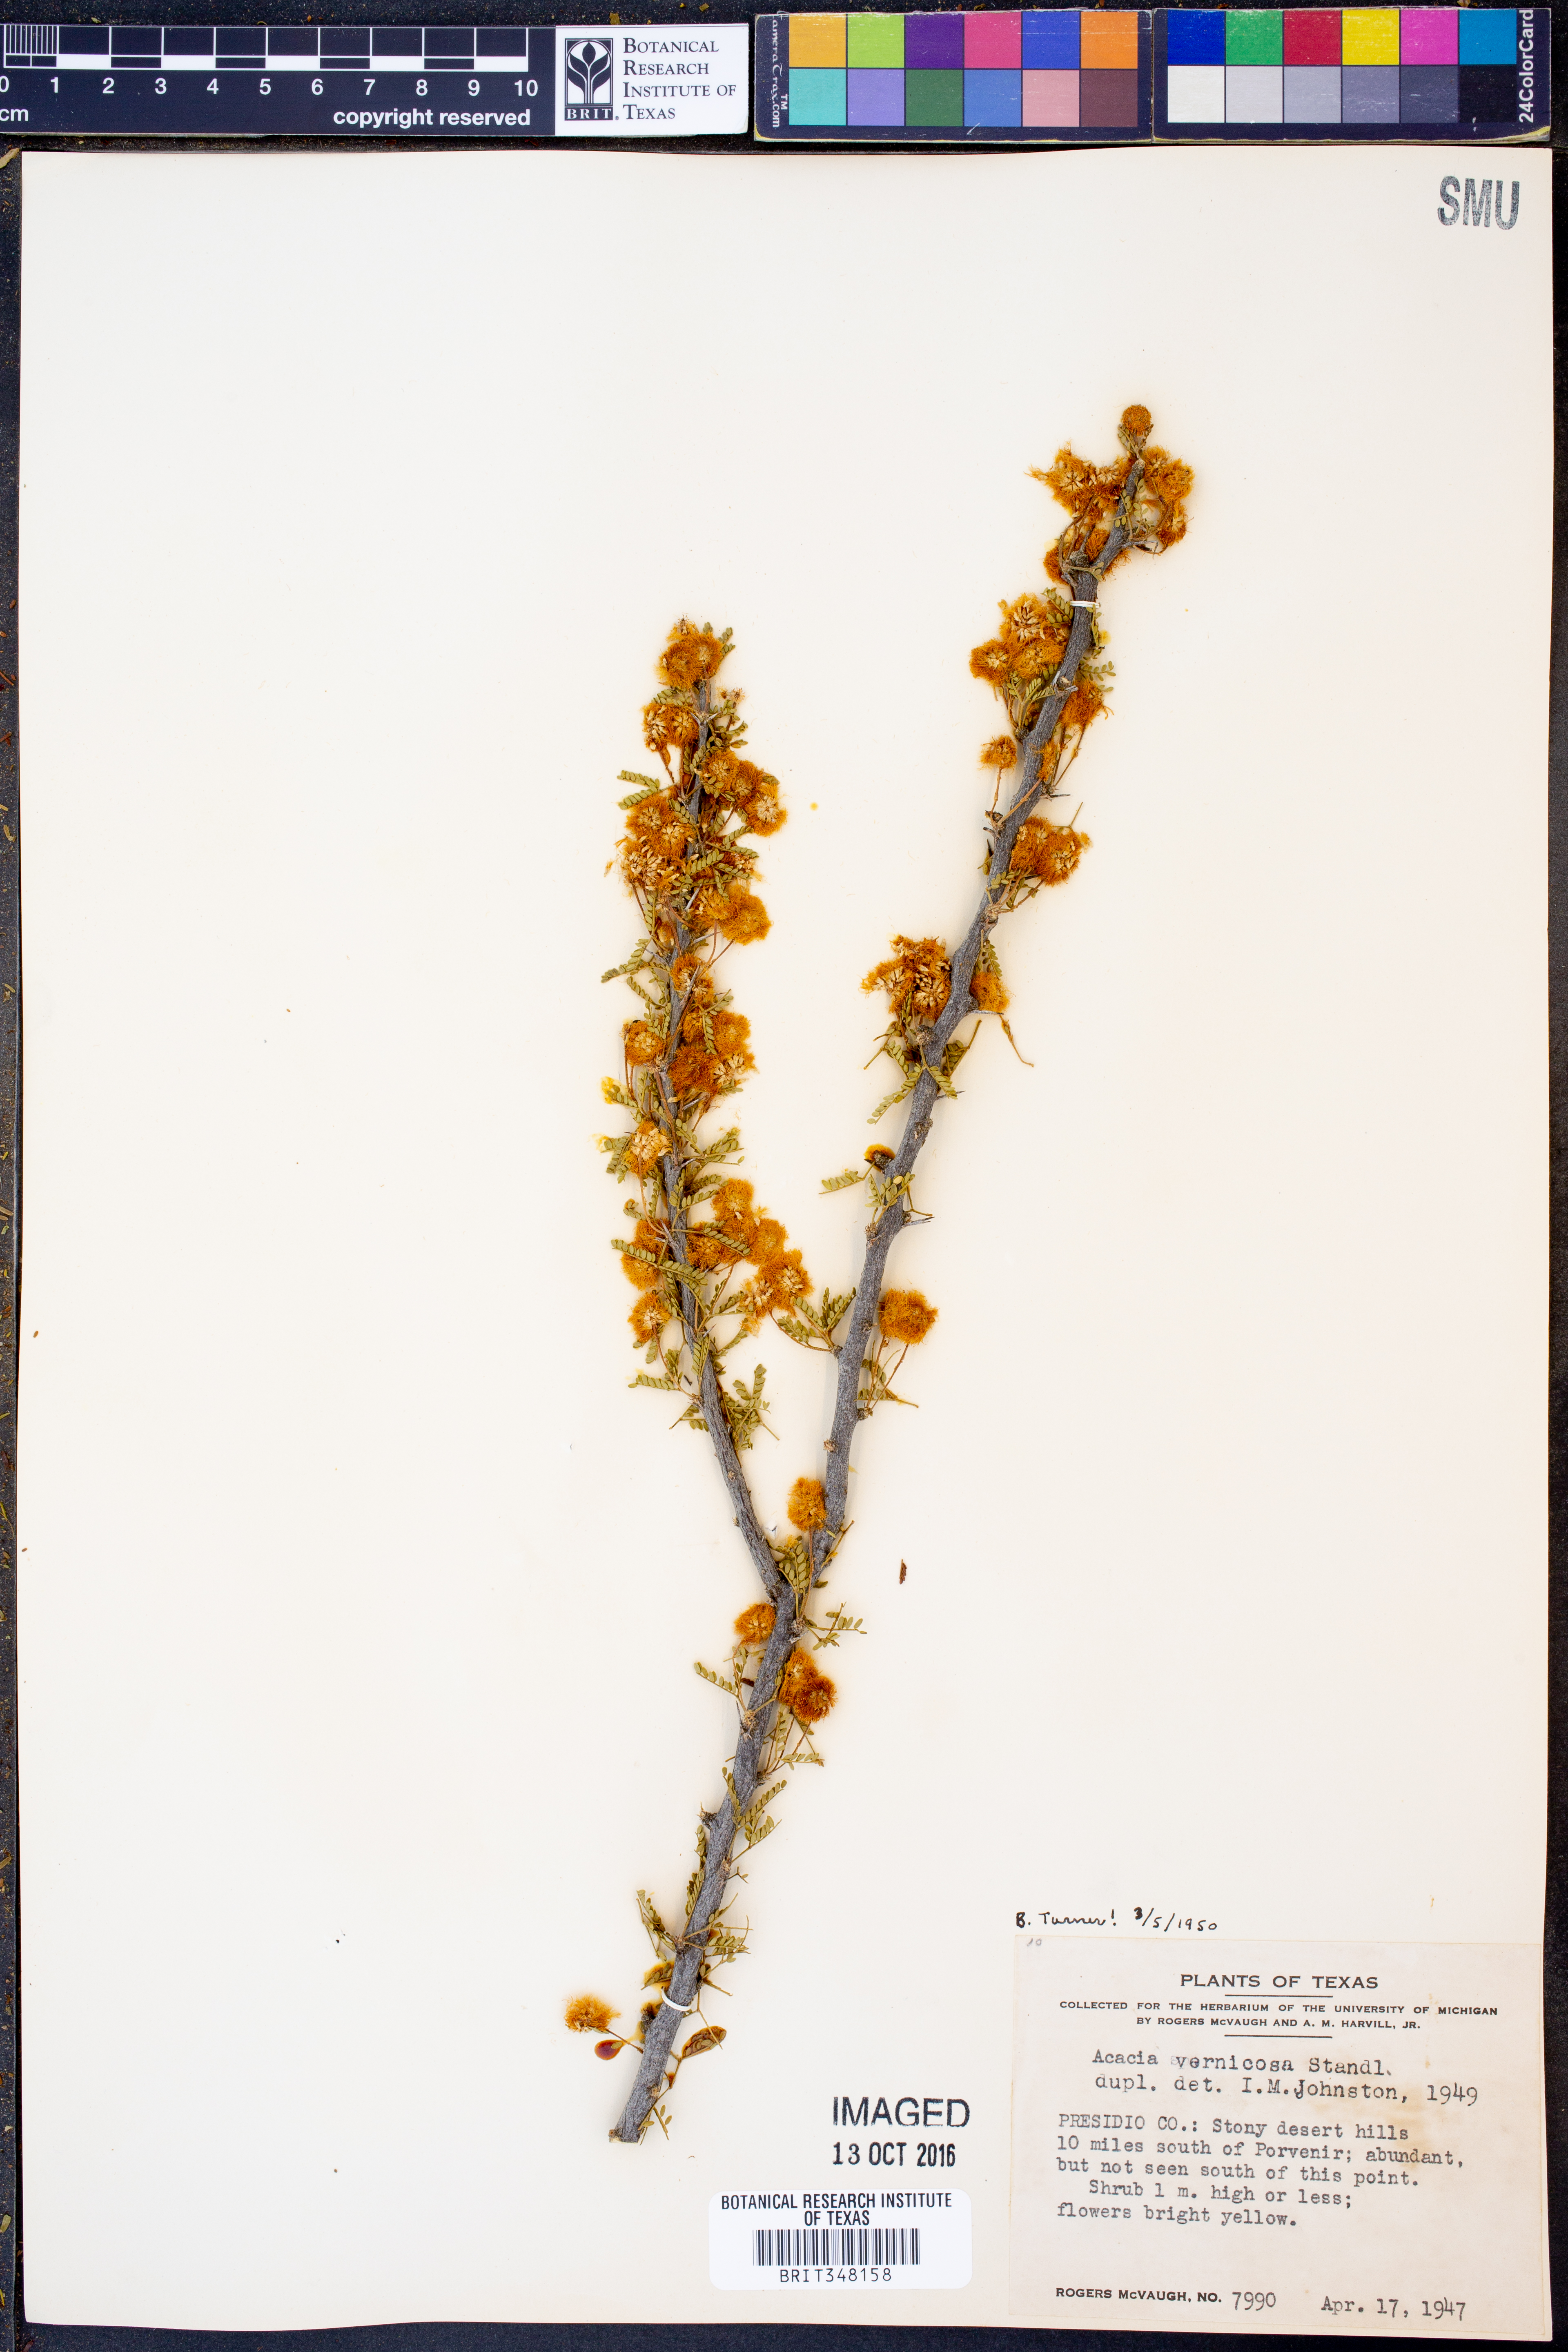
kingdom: Plantae
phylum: Tracheophyta
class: Magnoliopsida
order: Fabales
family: Fabaceae
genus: Vachellia
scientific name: Vachellia vernicosa
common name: Viscid acacia
